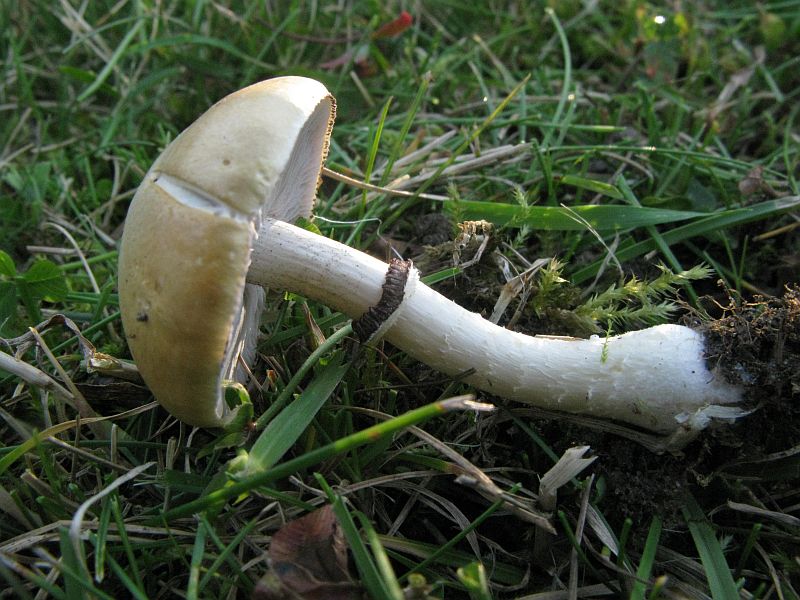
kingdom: Fungi
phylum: Basidiomycota
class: Agaricomycetes
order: Agaricales
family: Hymenogastraceae
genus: Psilocybe
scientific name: Psilocybe coronilla
